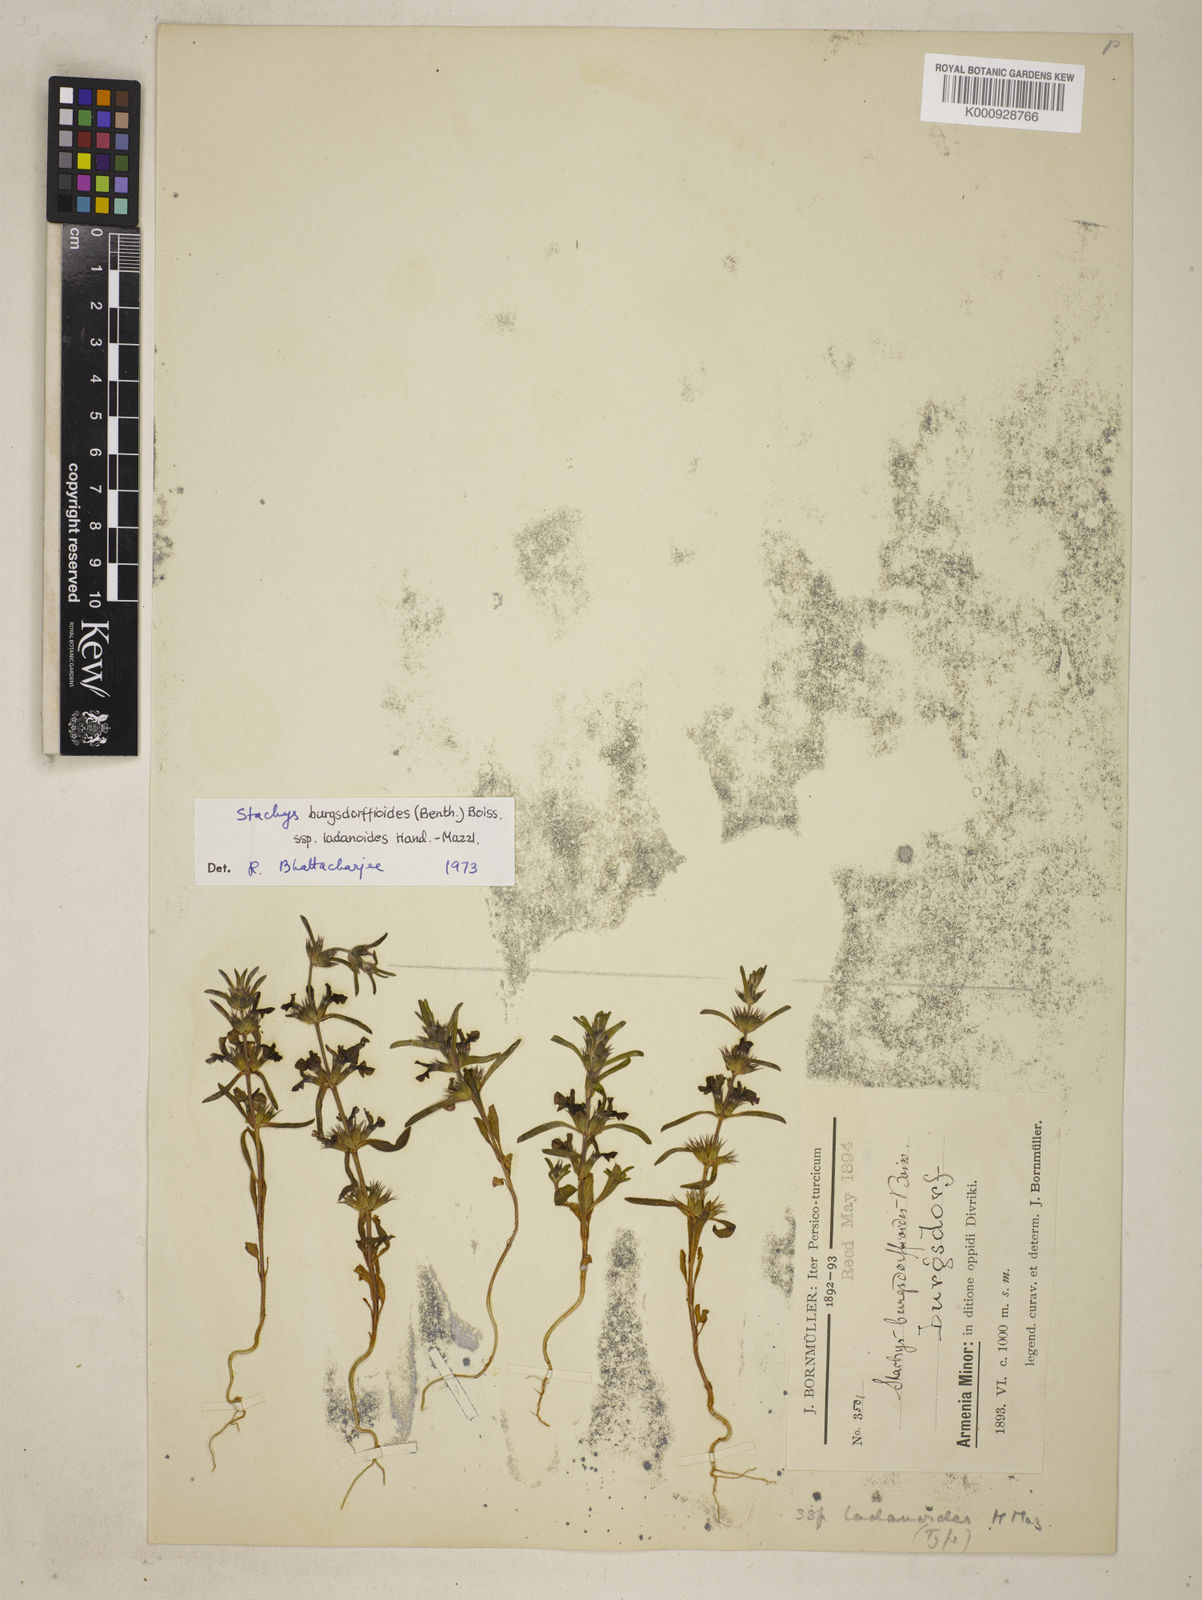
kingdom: Plantae
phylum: Tracheophyta
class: Magnoliopsida
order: Lamiales
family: Lamiaceae
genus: Stachys
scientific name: Stachys burgsdorffioides
